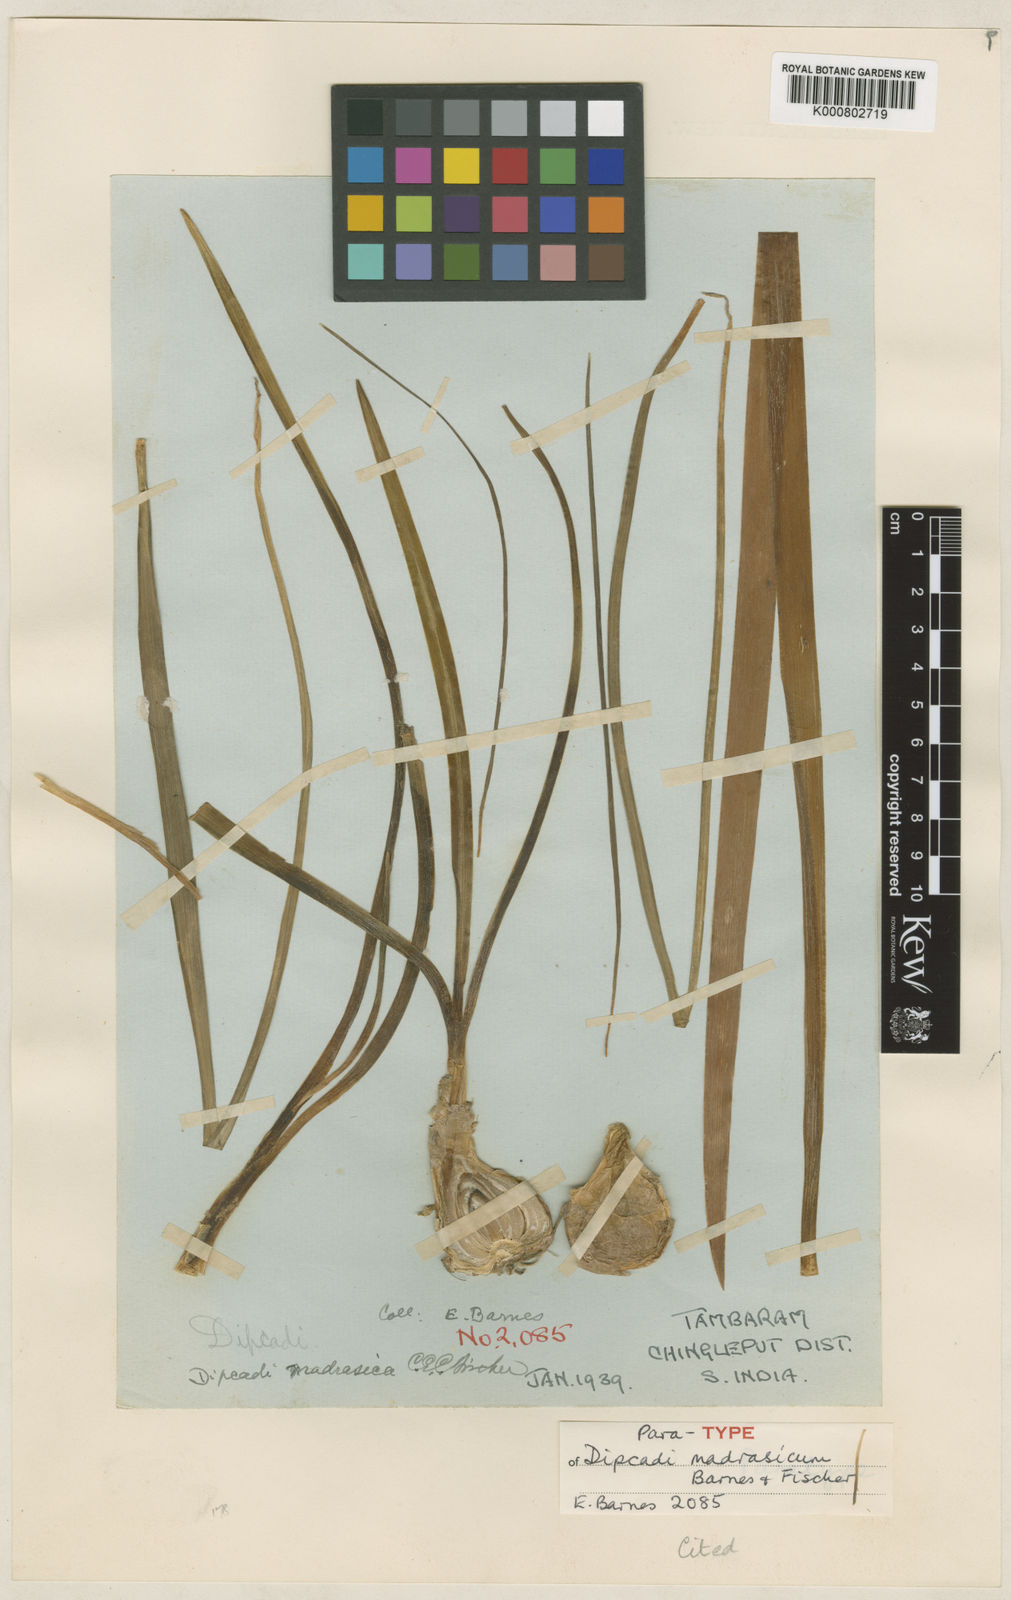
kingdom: Plantae
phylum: Tracheophyta
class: Liliopsida
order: Asparagales
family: Asparagaceae
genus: Dipcadi
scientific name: Dipcadi montanum
